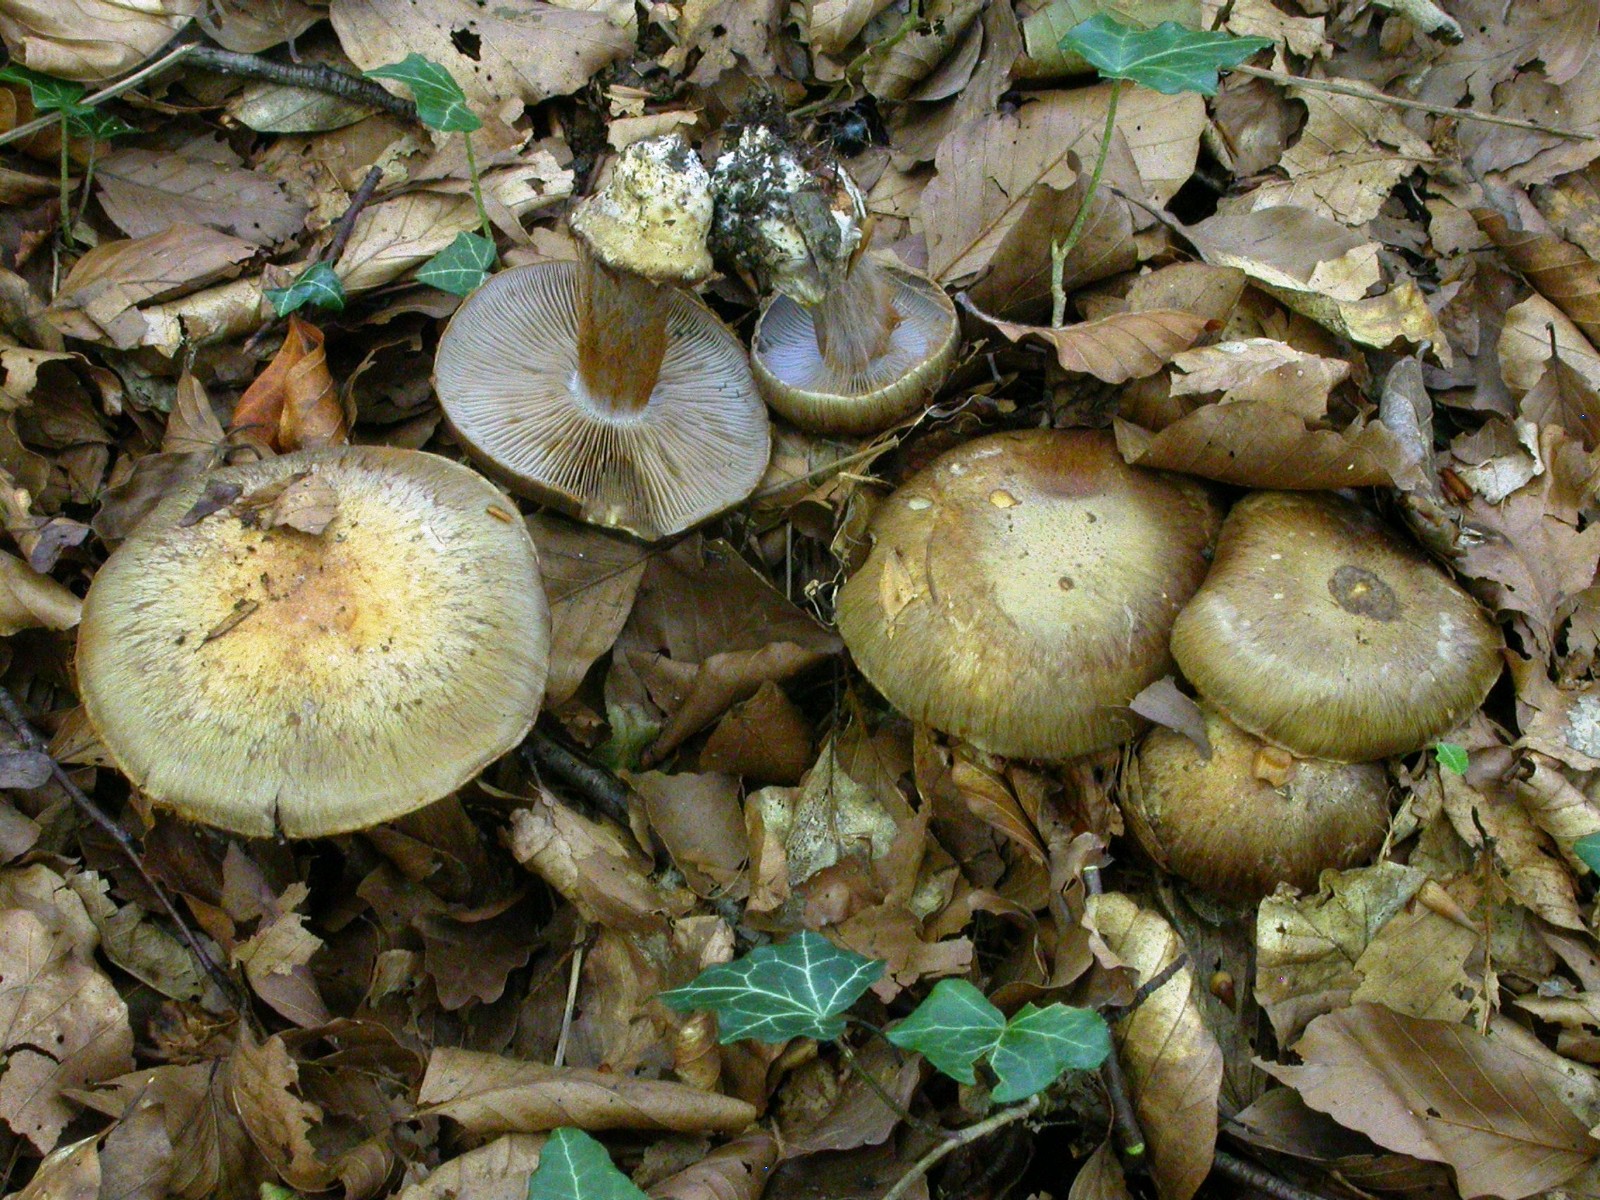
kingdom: Fungi
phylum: Basidiomycota
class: Agaricomycetes
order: Agaricales
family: Cortinariaceae
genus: Phlegmacium
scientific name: Phlegmacium
